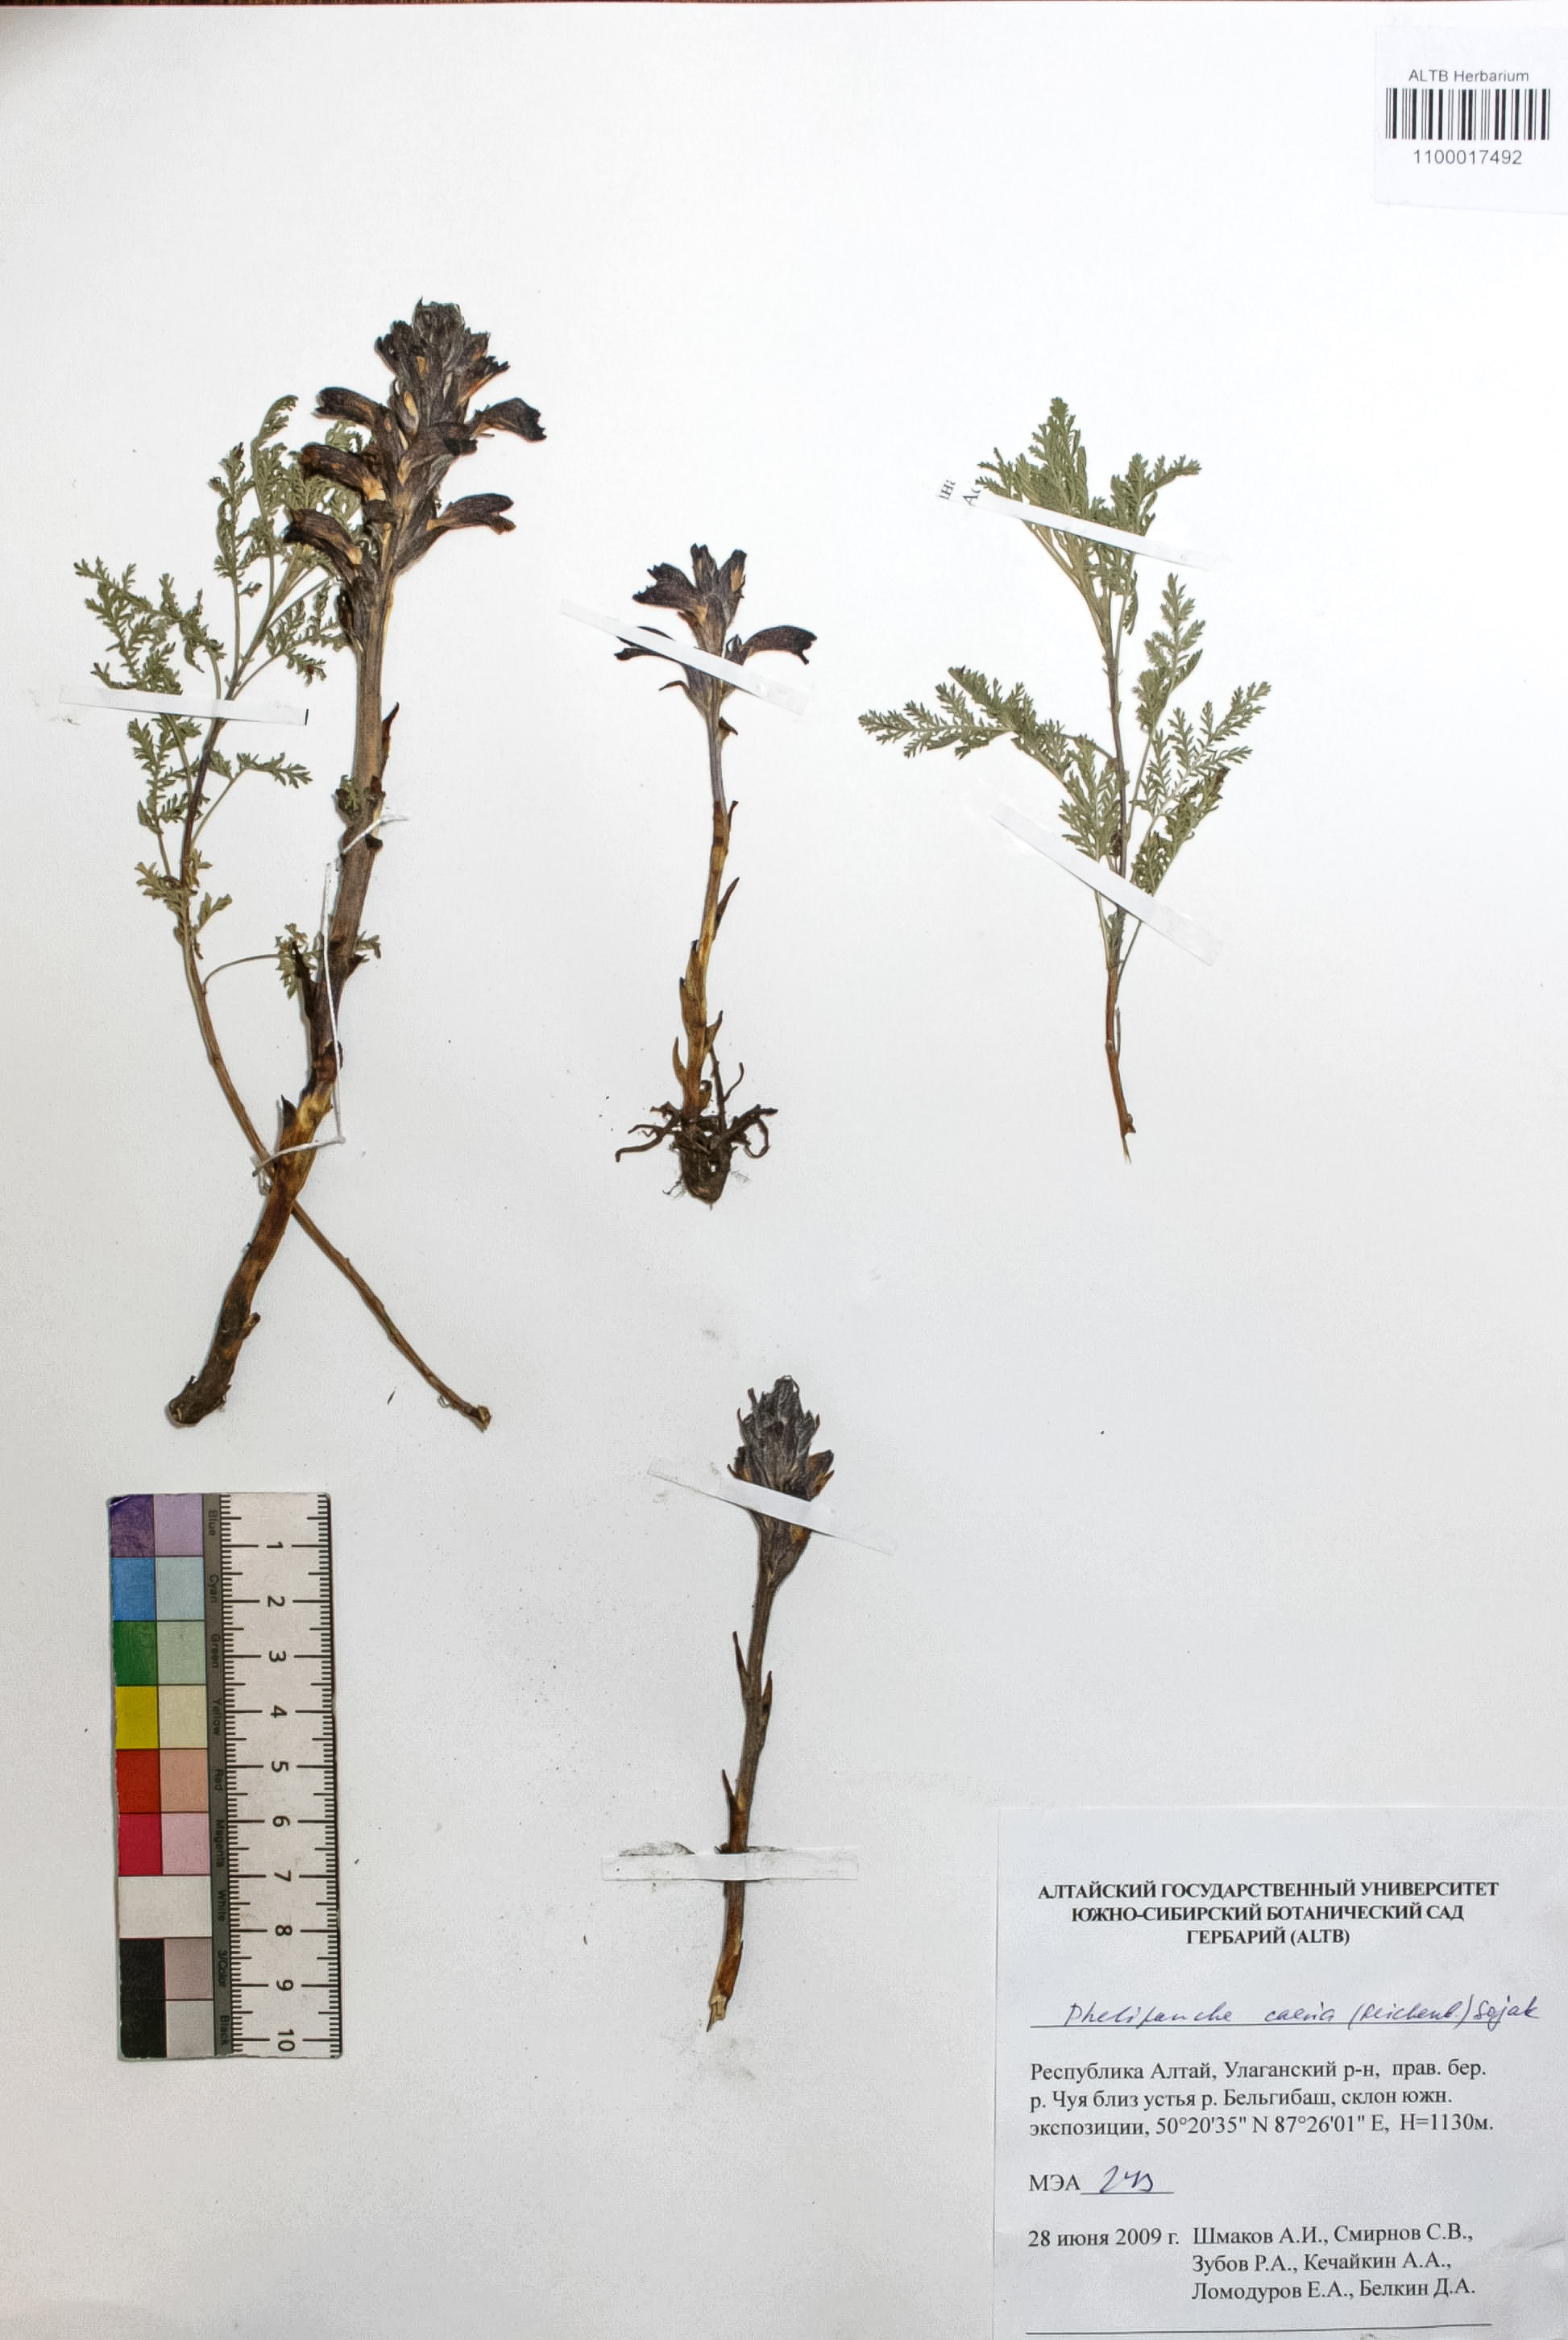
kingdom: Plantae
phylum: Tracheophyta
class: Magnoliopsida
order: Lamiales
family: Orobanchaceae
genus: Phelipanche
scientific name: Phelipanche caesia
